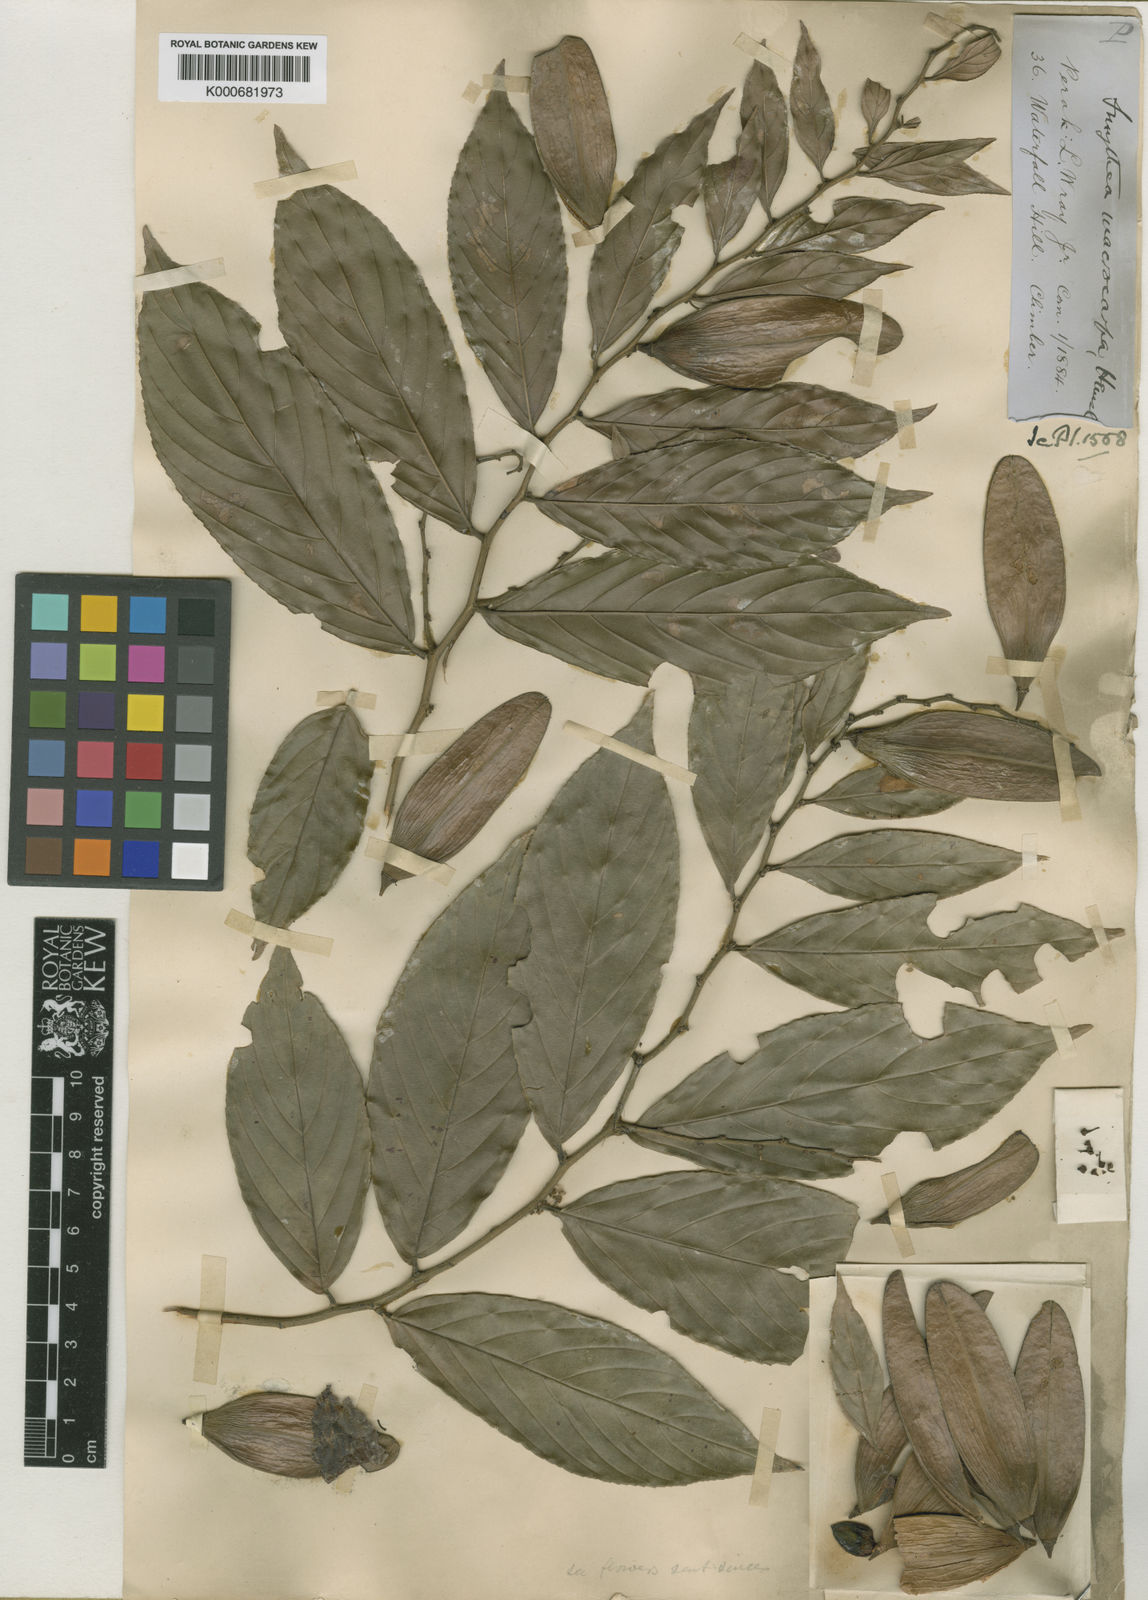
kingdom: Plantae
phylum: Tracheophyta
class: Magnoliopsida
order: Rosales
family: Rhamnaceae
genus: Smythea
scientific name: Smythea macrocarpa
